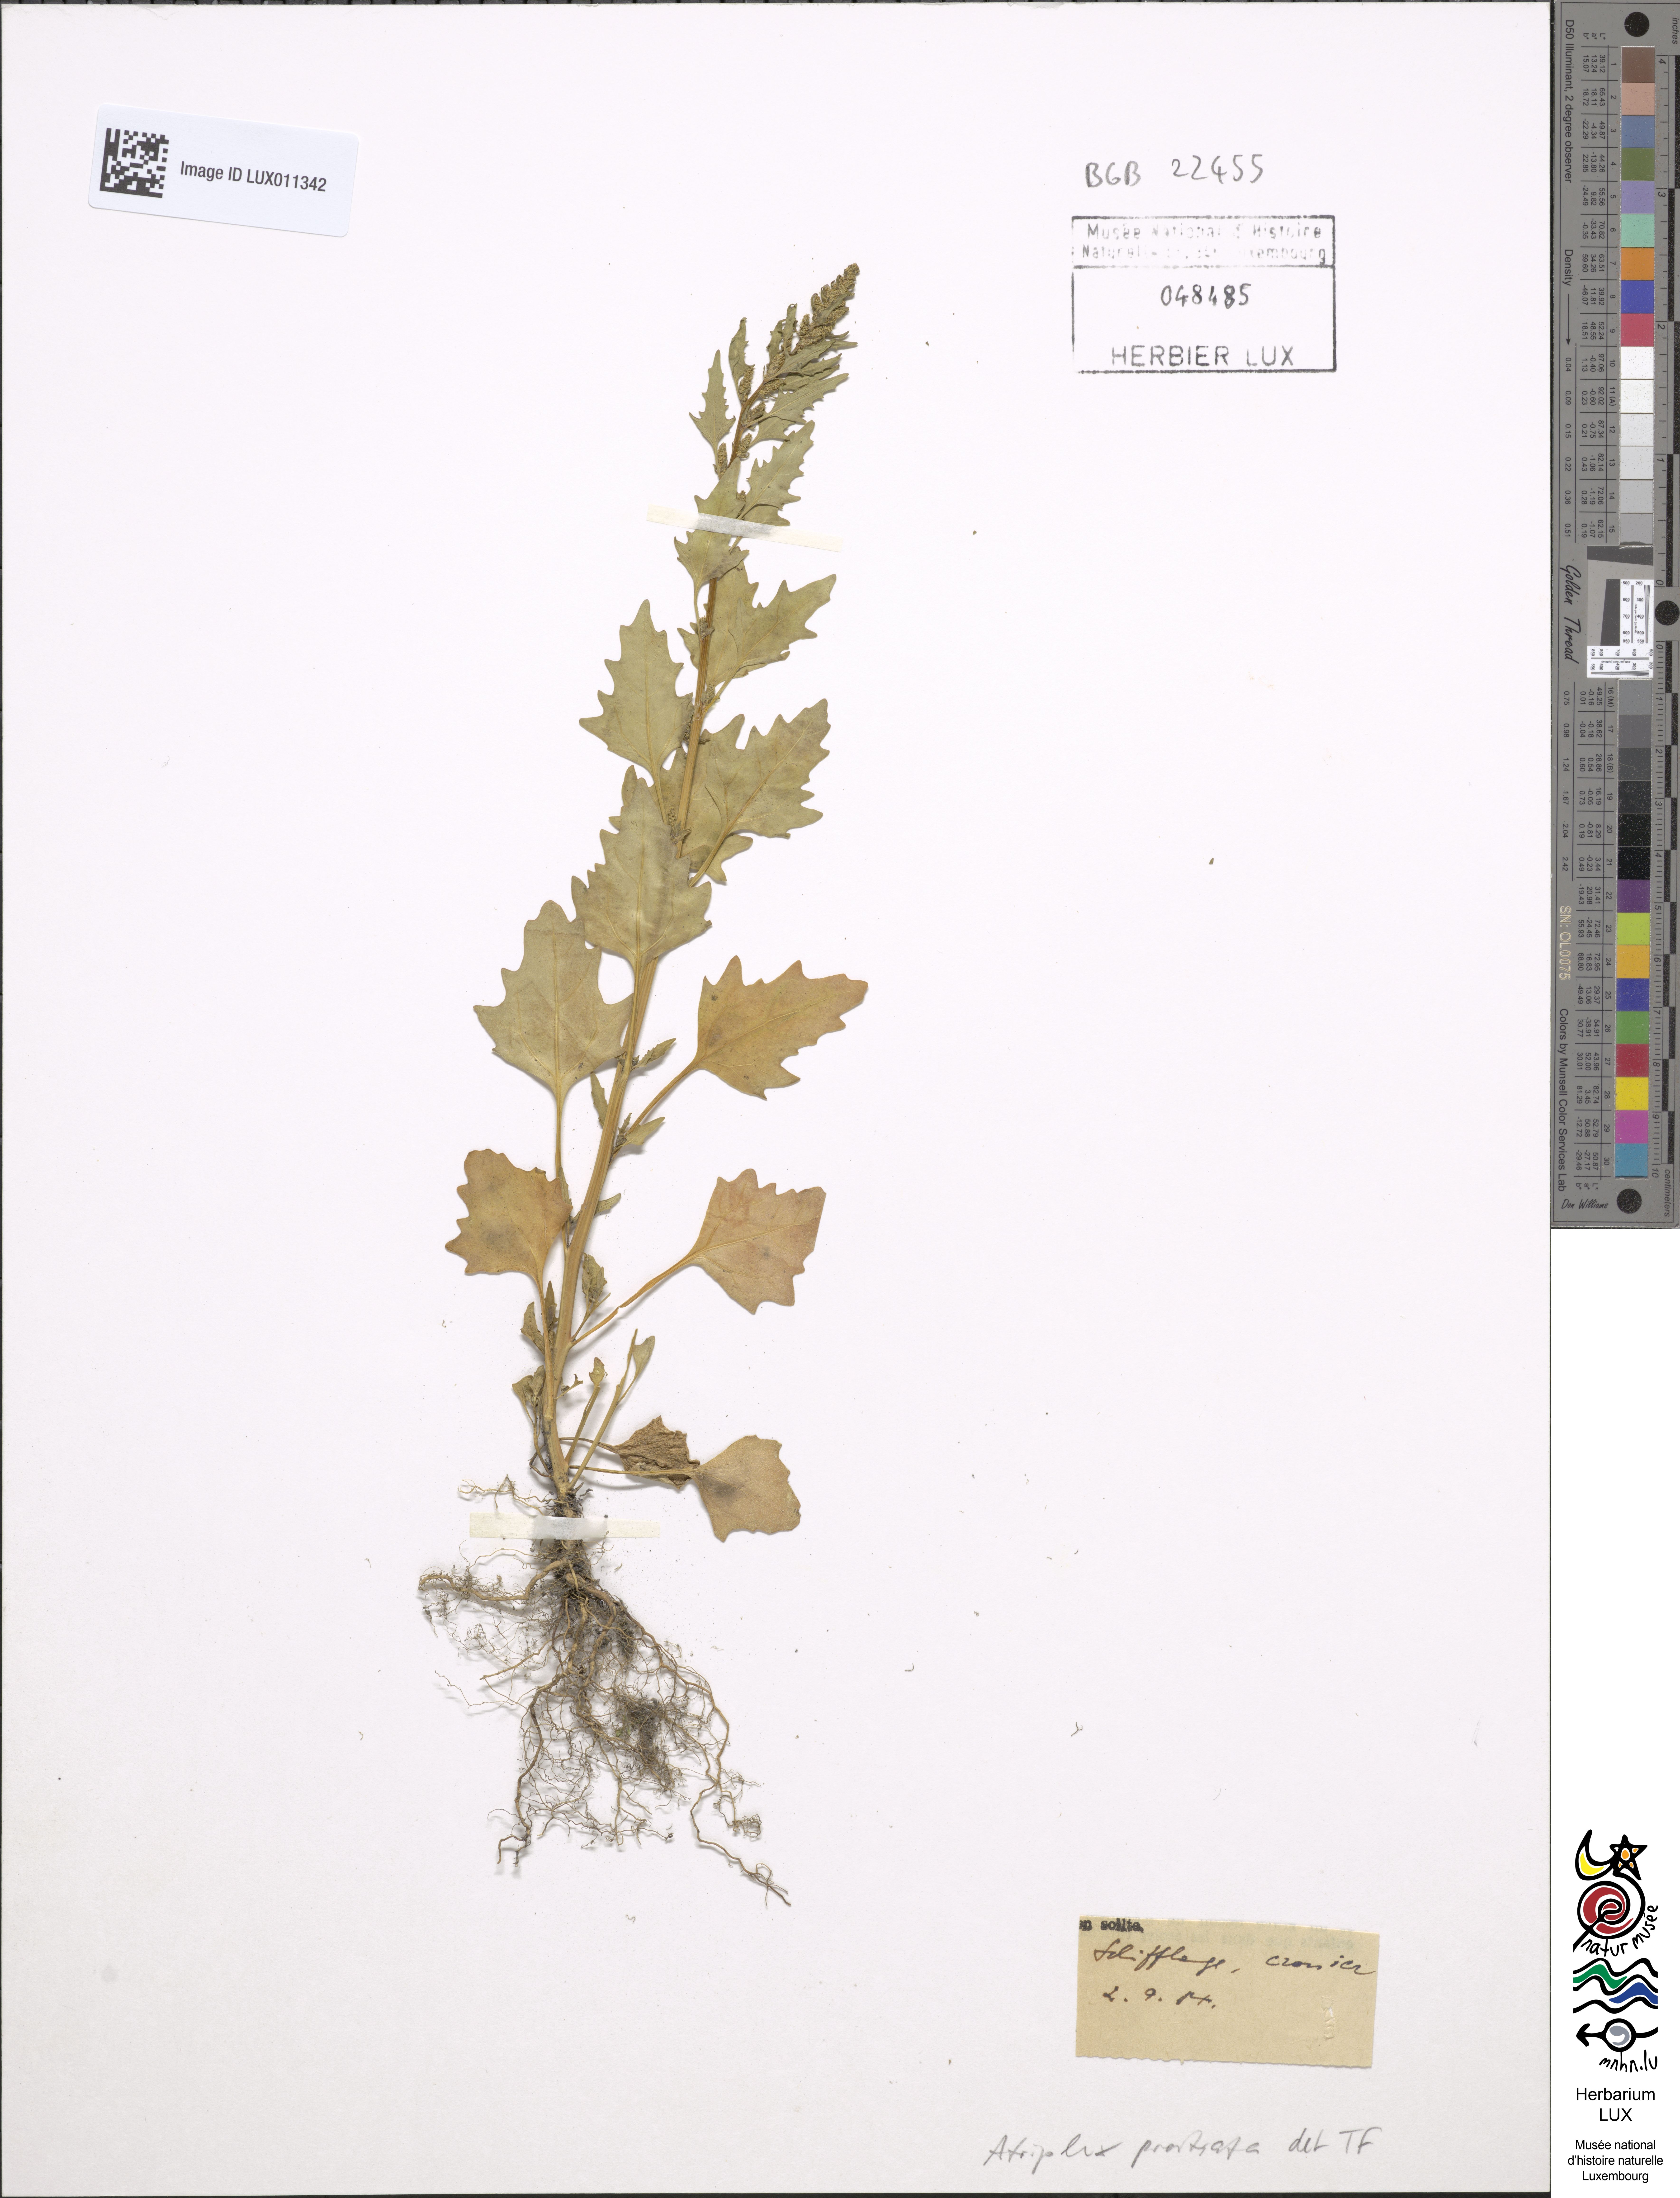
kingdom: Plantae
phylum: Tracheophyta
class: Magnoliopsida
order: Caryophyllales
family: Amaranthaceae
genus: Atriplex
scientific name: Atriplex prostrata
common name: Spear-leaved orache
